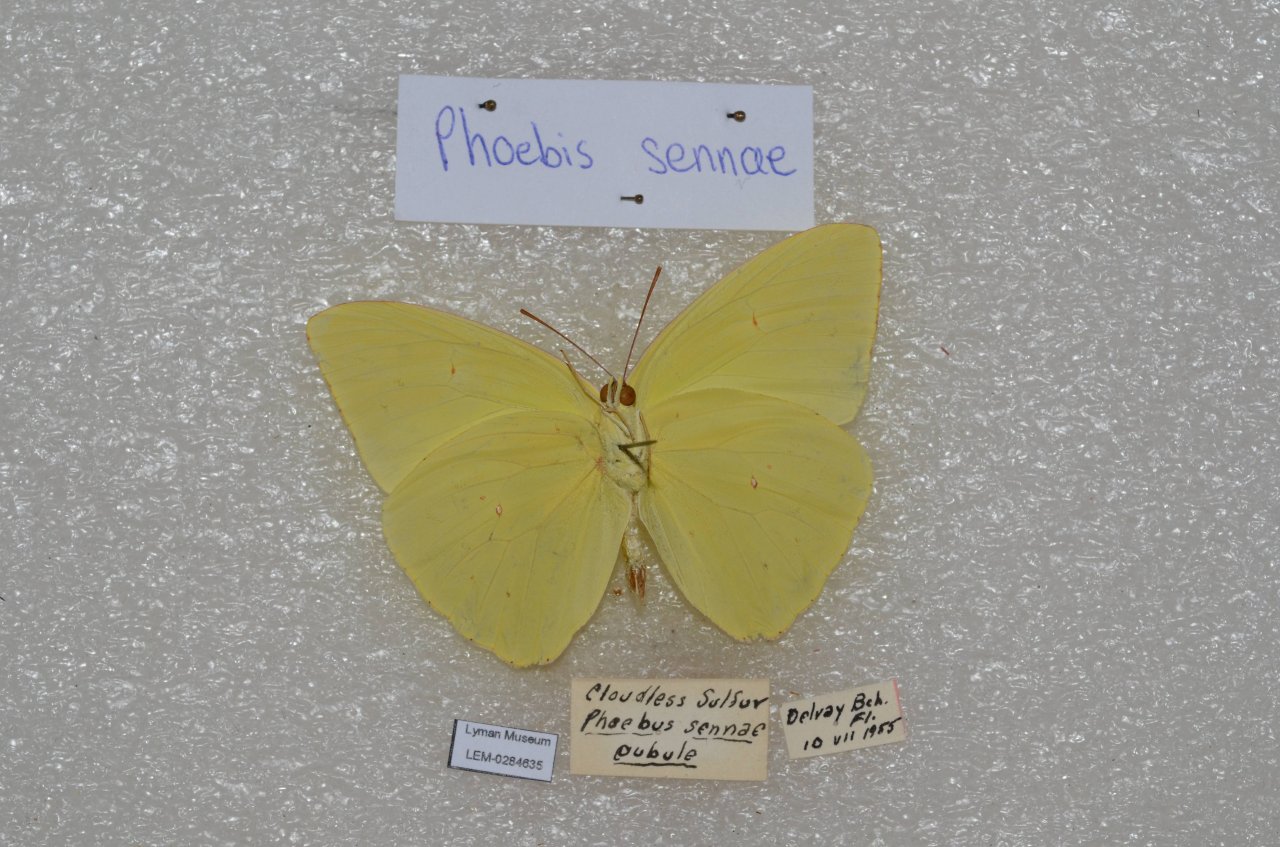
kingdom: Animalia
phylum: Arthropoda
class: Insecta
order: Lepidoptera
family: Pieridae
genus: Phoebis
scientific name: Phoebis sennae
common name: Cloudless Sulphur
